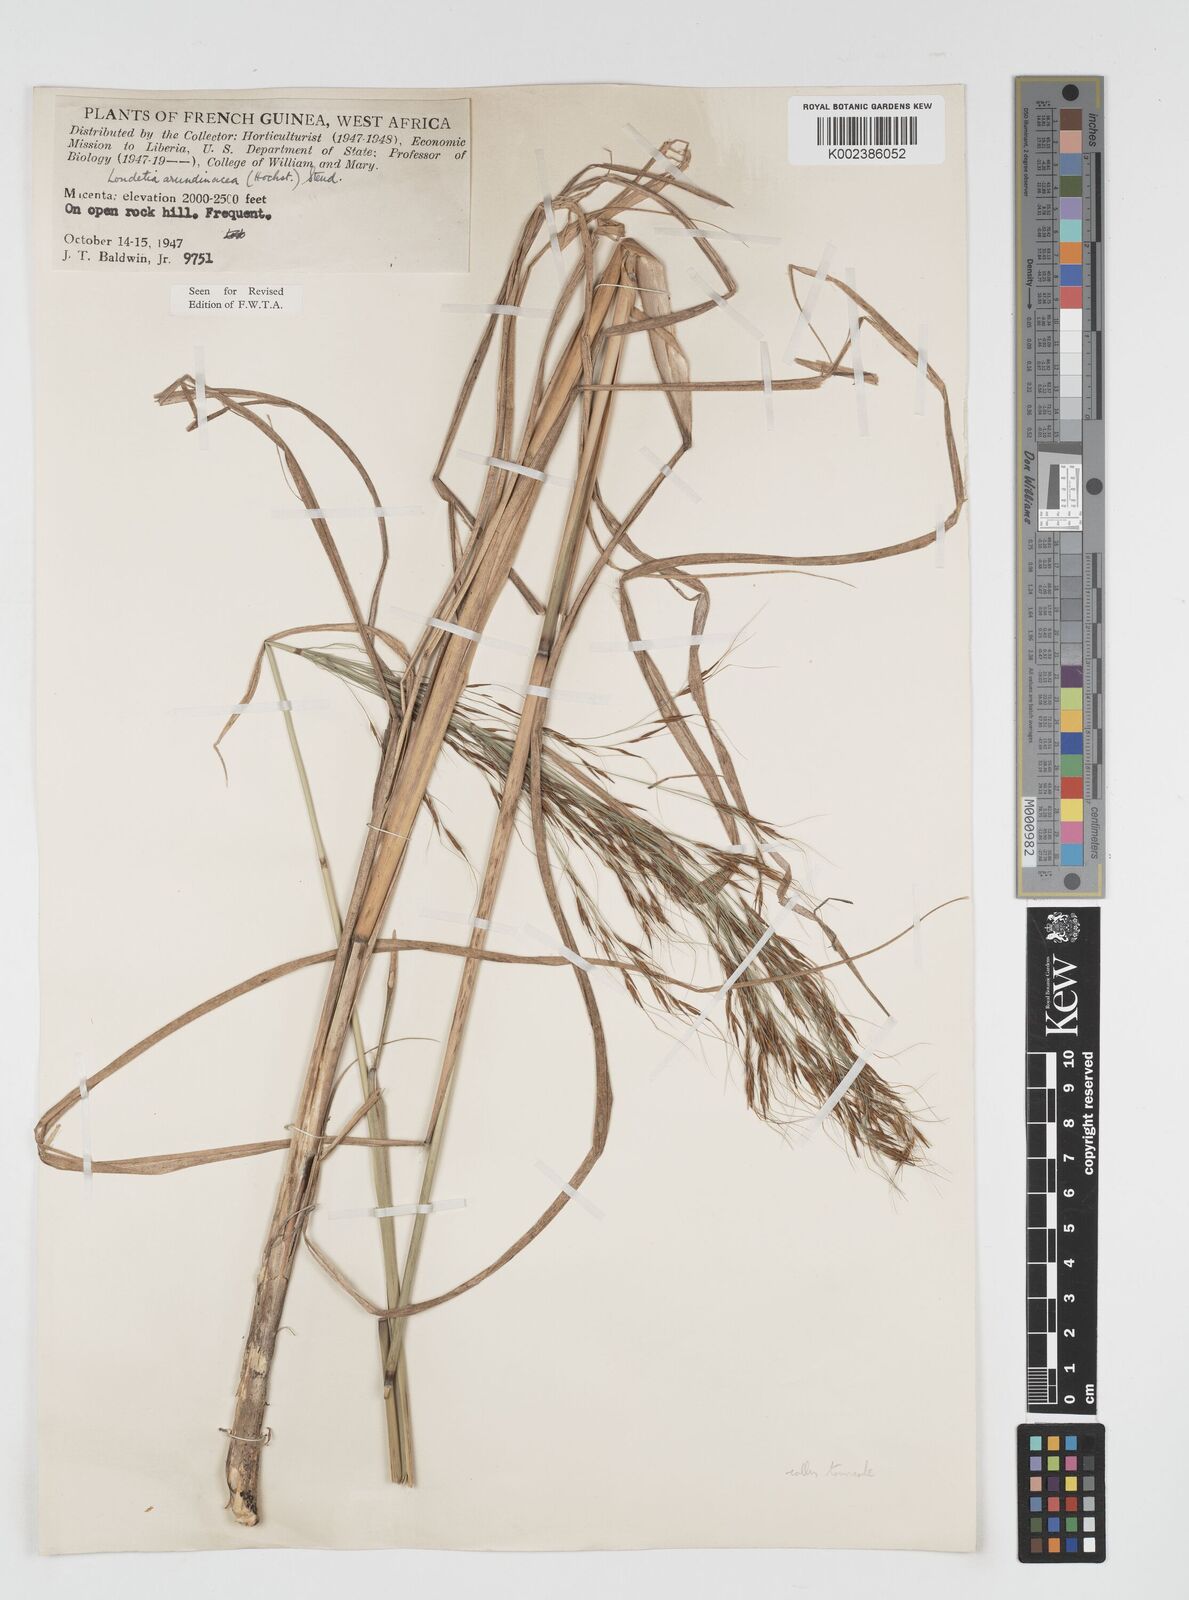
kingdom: Plantae
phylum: Tracheophyta
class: Liliopsida
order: Poales
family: Poaceae
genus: Loudetia
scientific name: Loudetia arundinacea
